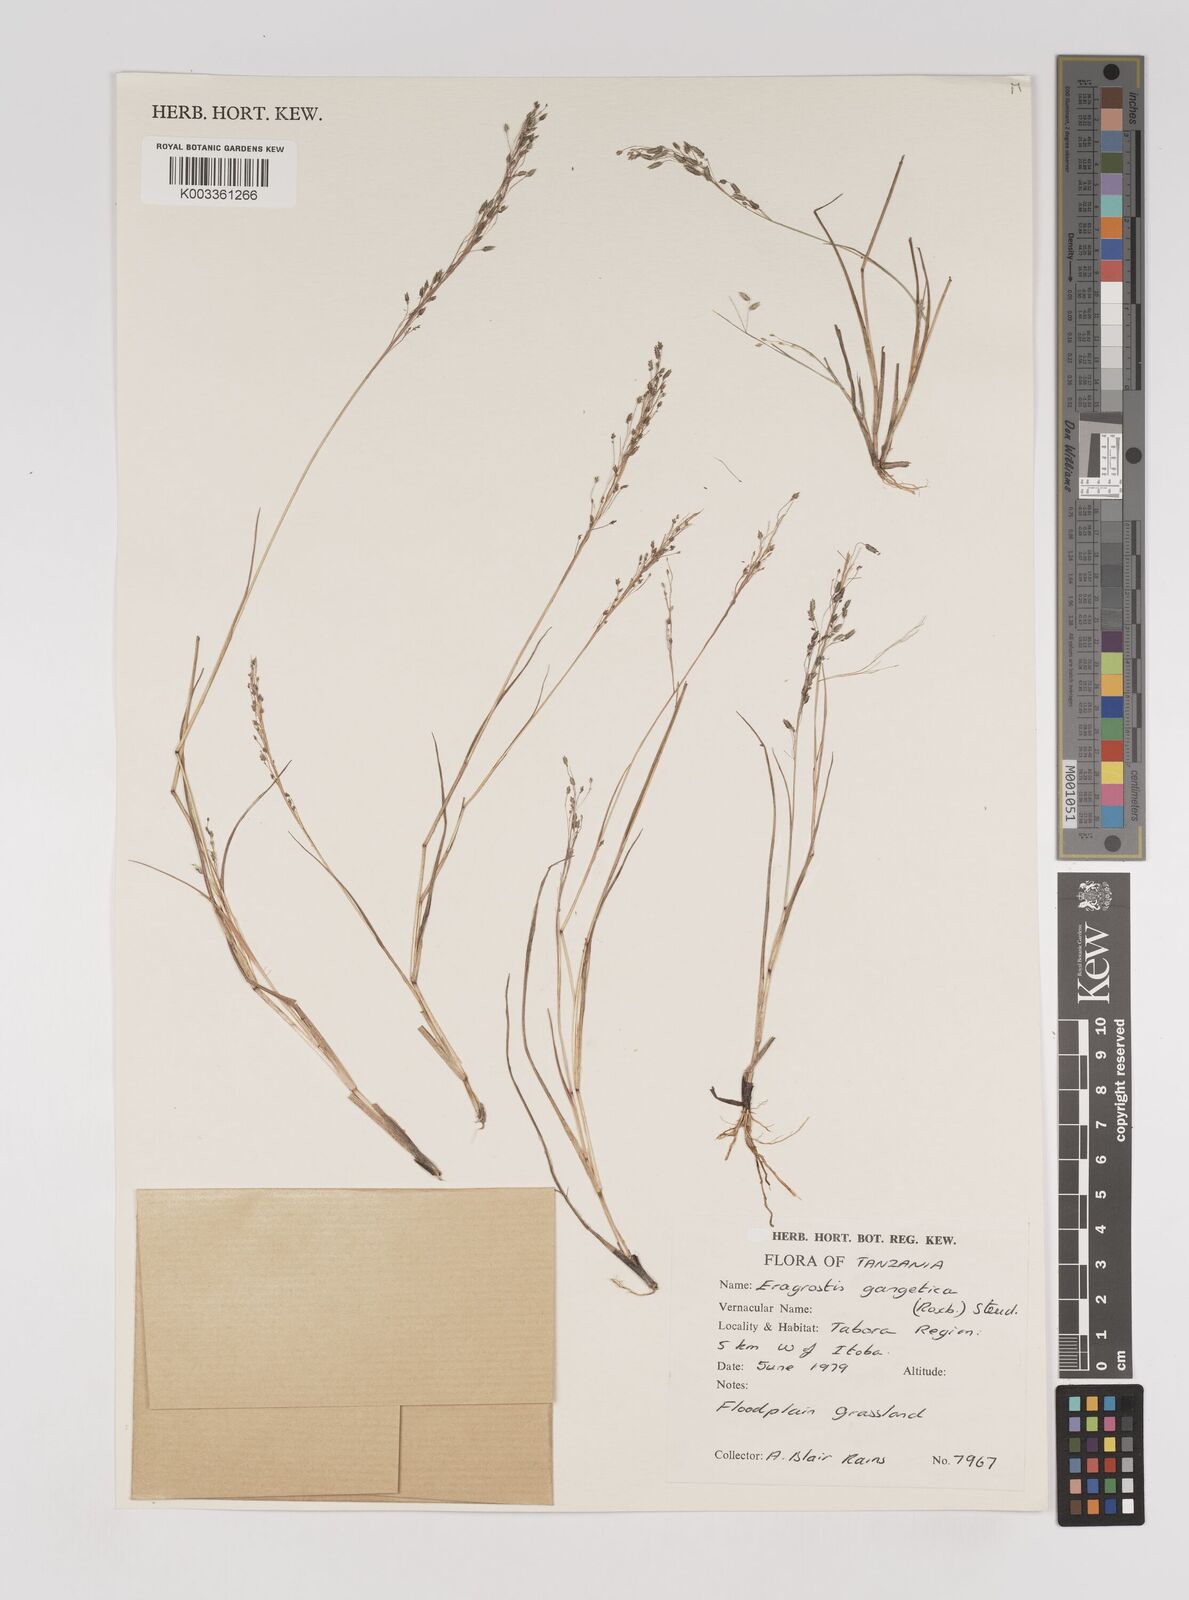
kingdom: Plantae
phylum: Tracheophyta
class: Liliopsida
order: Poales
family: Poaceae
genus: Eragrostis
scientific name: Eragrostis gangetica
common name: Slimflower lovegrass
